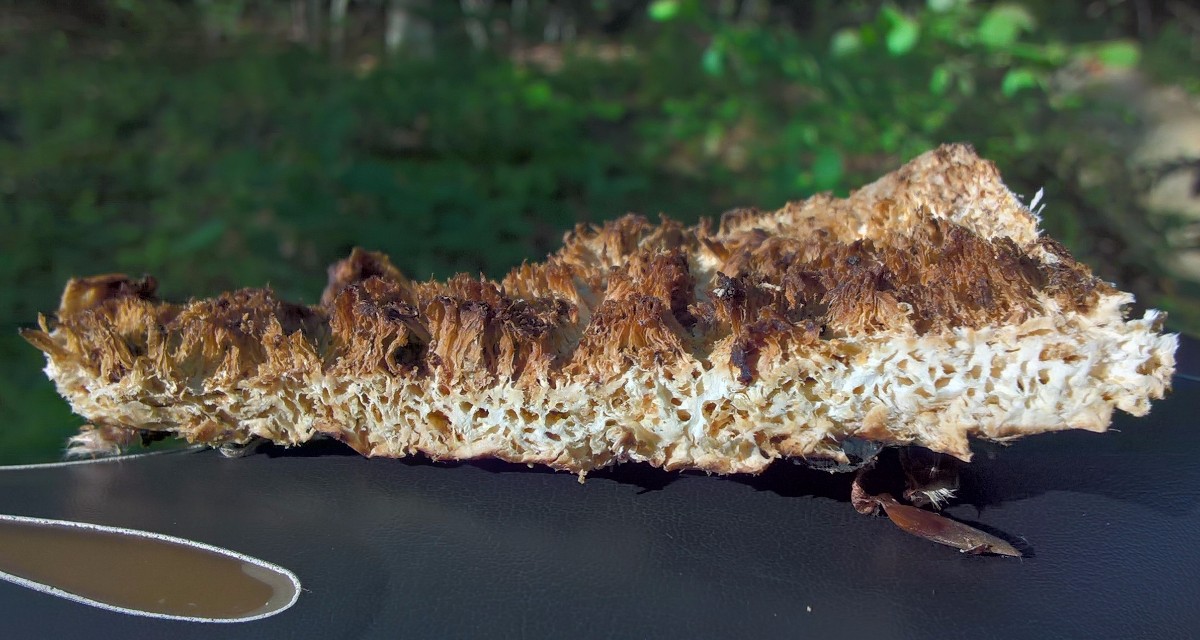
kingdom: Fungi
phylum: Basidiomycota
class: Agaricomycetes
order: Polyporales
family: Polyporaceae
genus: Cerioporus
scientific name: Cerioporus squamosus
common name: skællet stilkporesvamp
